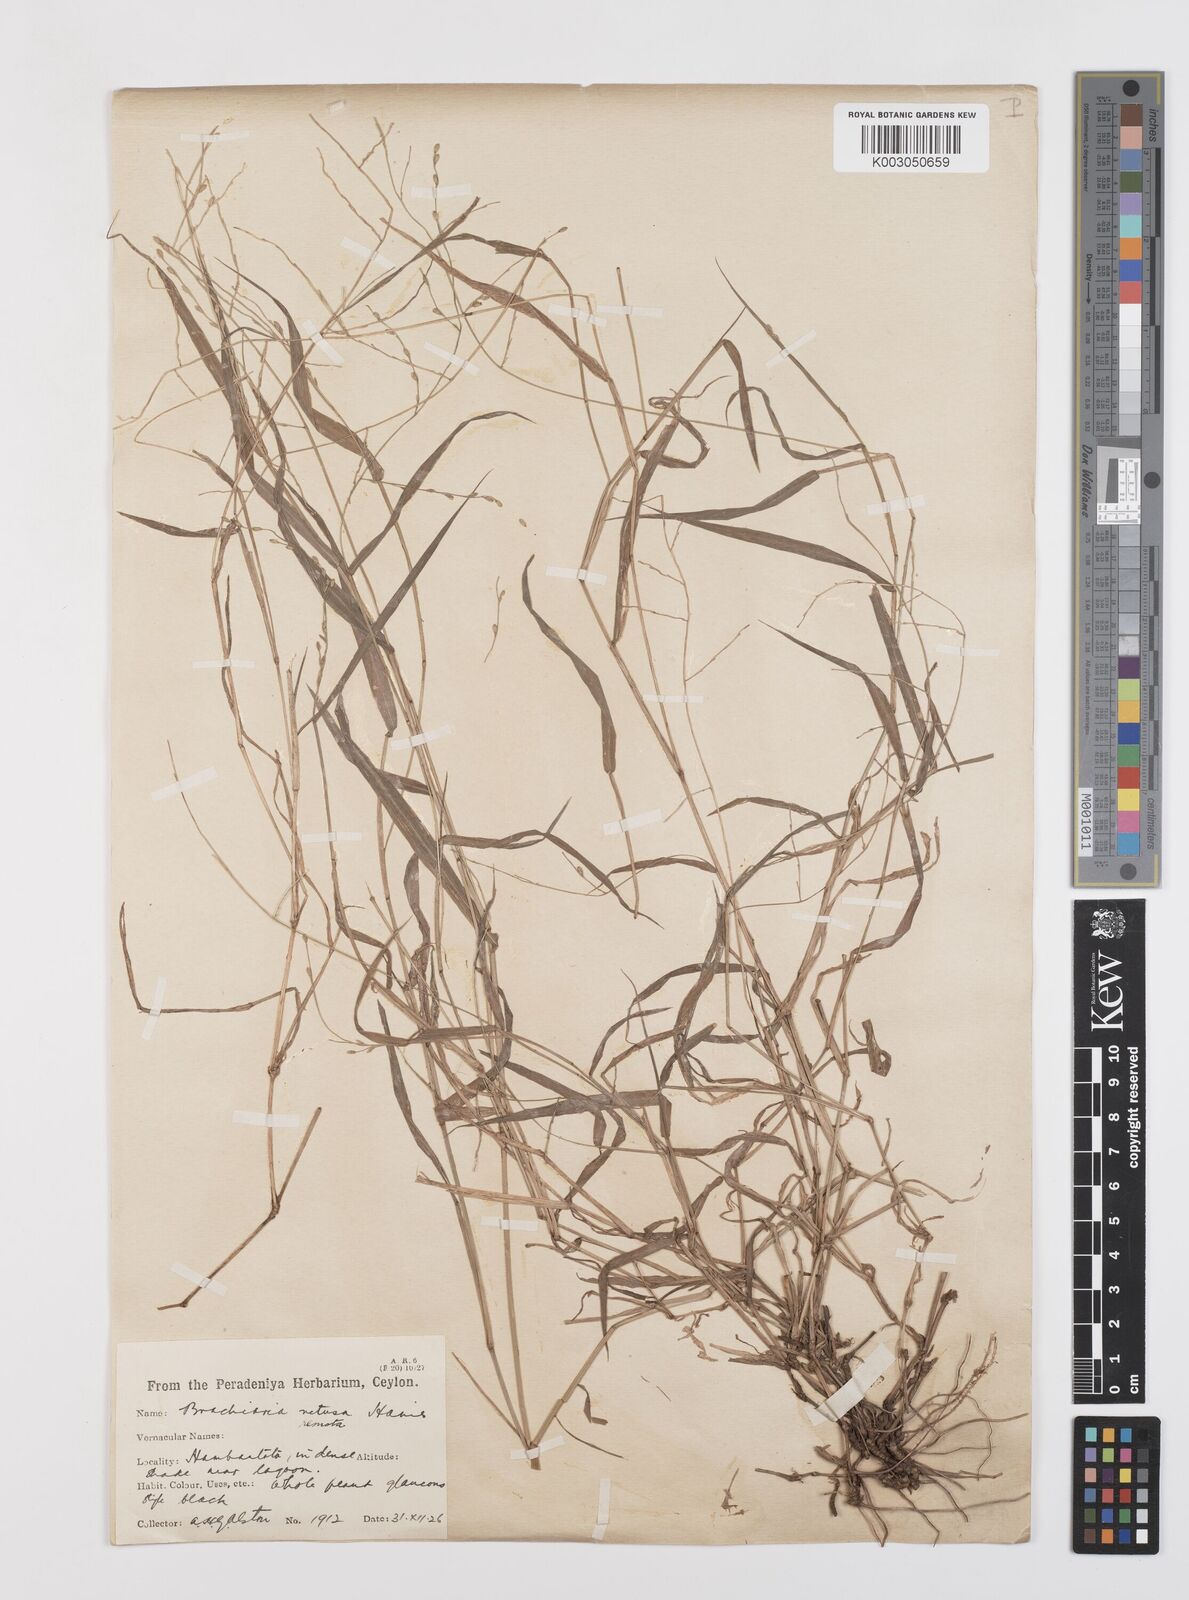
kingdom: Plantae
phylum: Tracheophyta
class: Liliopsida
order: Poales
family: Poaceae
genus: Urochloa
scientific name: Urochloa Brachiaria remota
